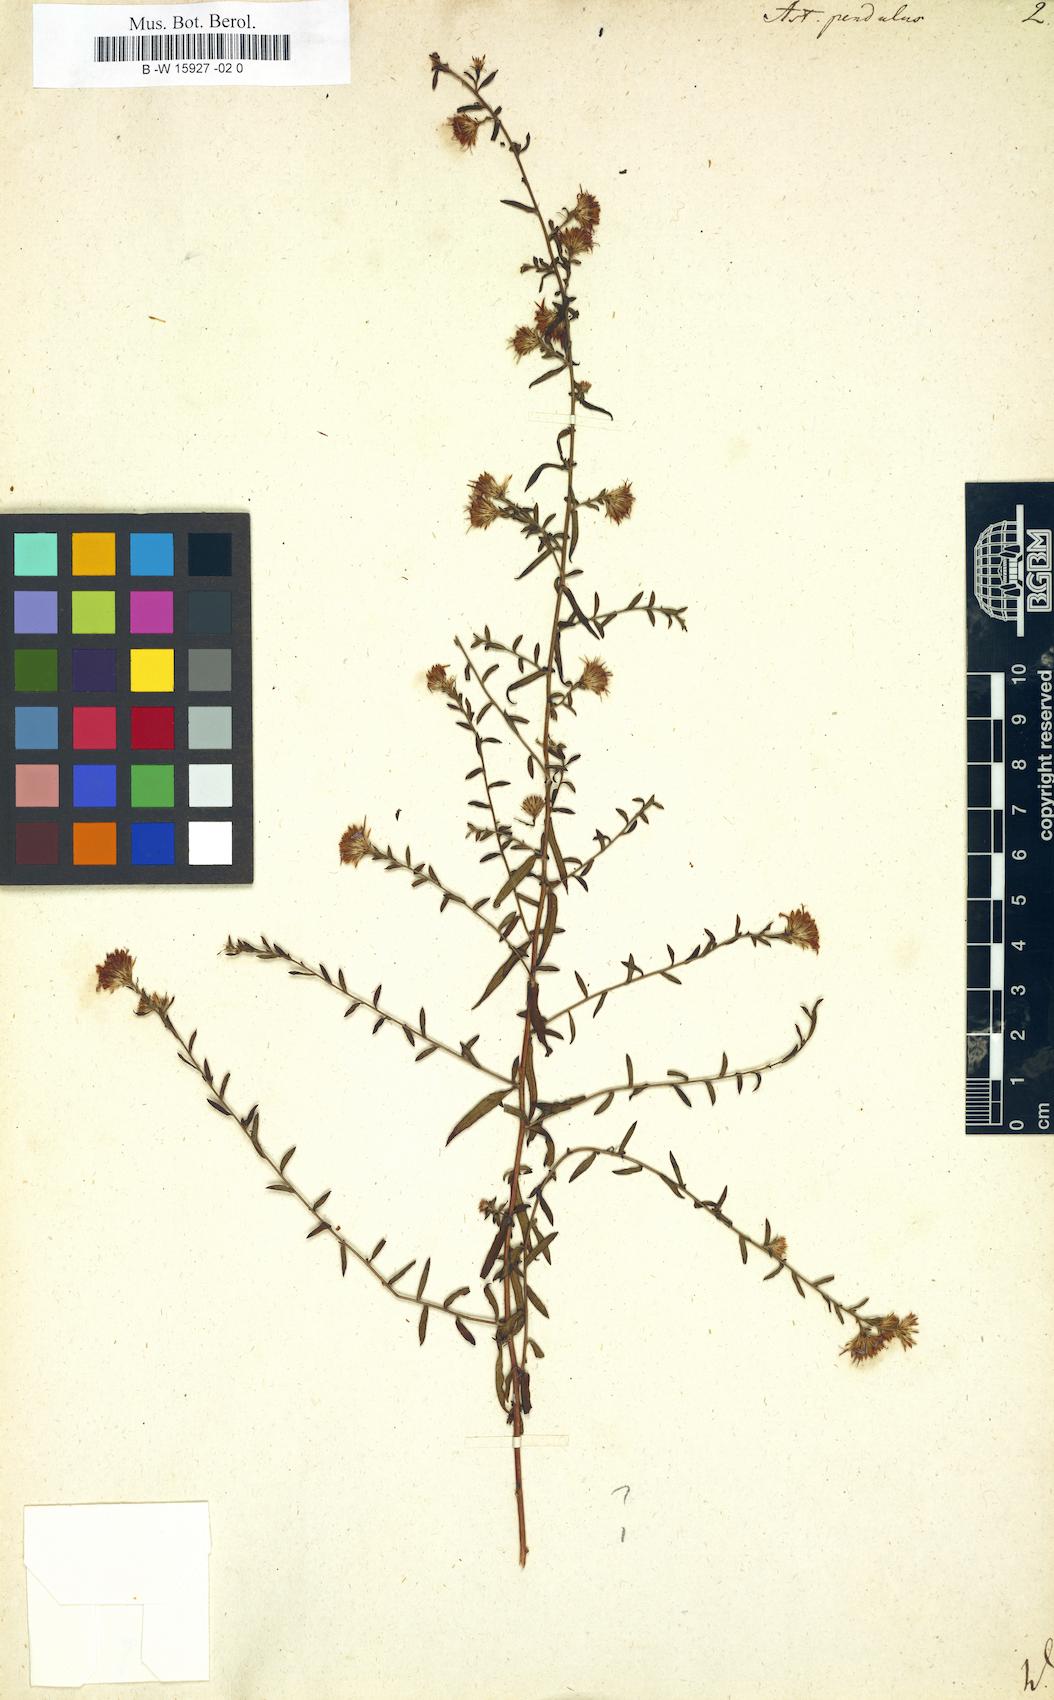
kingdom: Plantae
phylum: Tracheophyta
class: Magnoliopsida
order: Asterales
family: Asteraceae
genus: Symphyotrichum
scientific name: Symphyotrichum lateriflorum
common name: Calico aster
